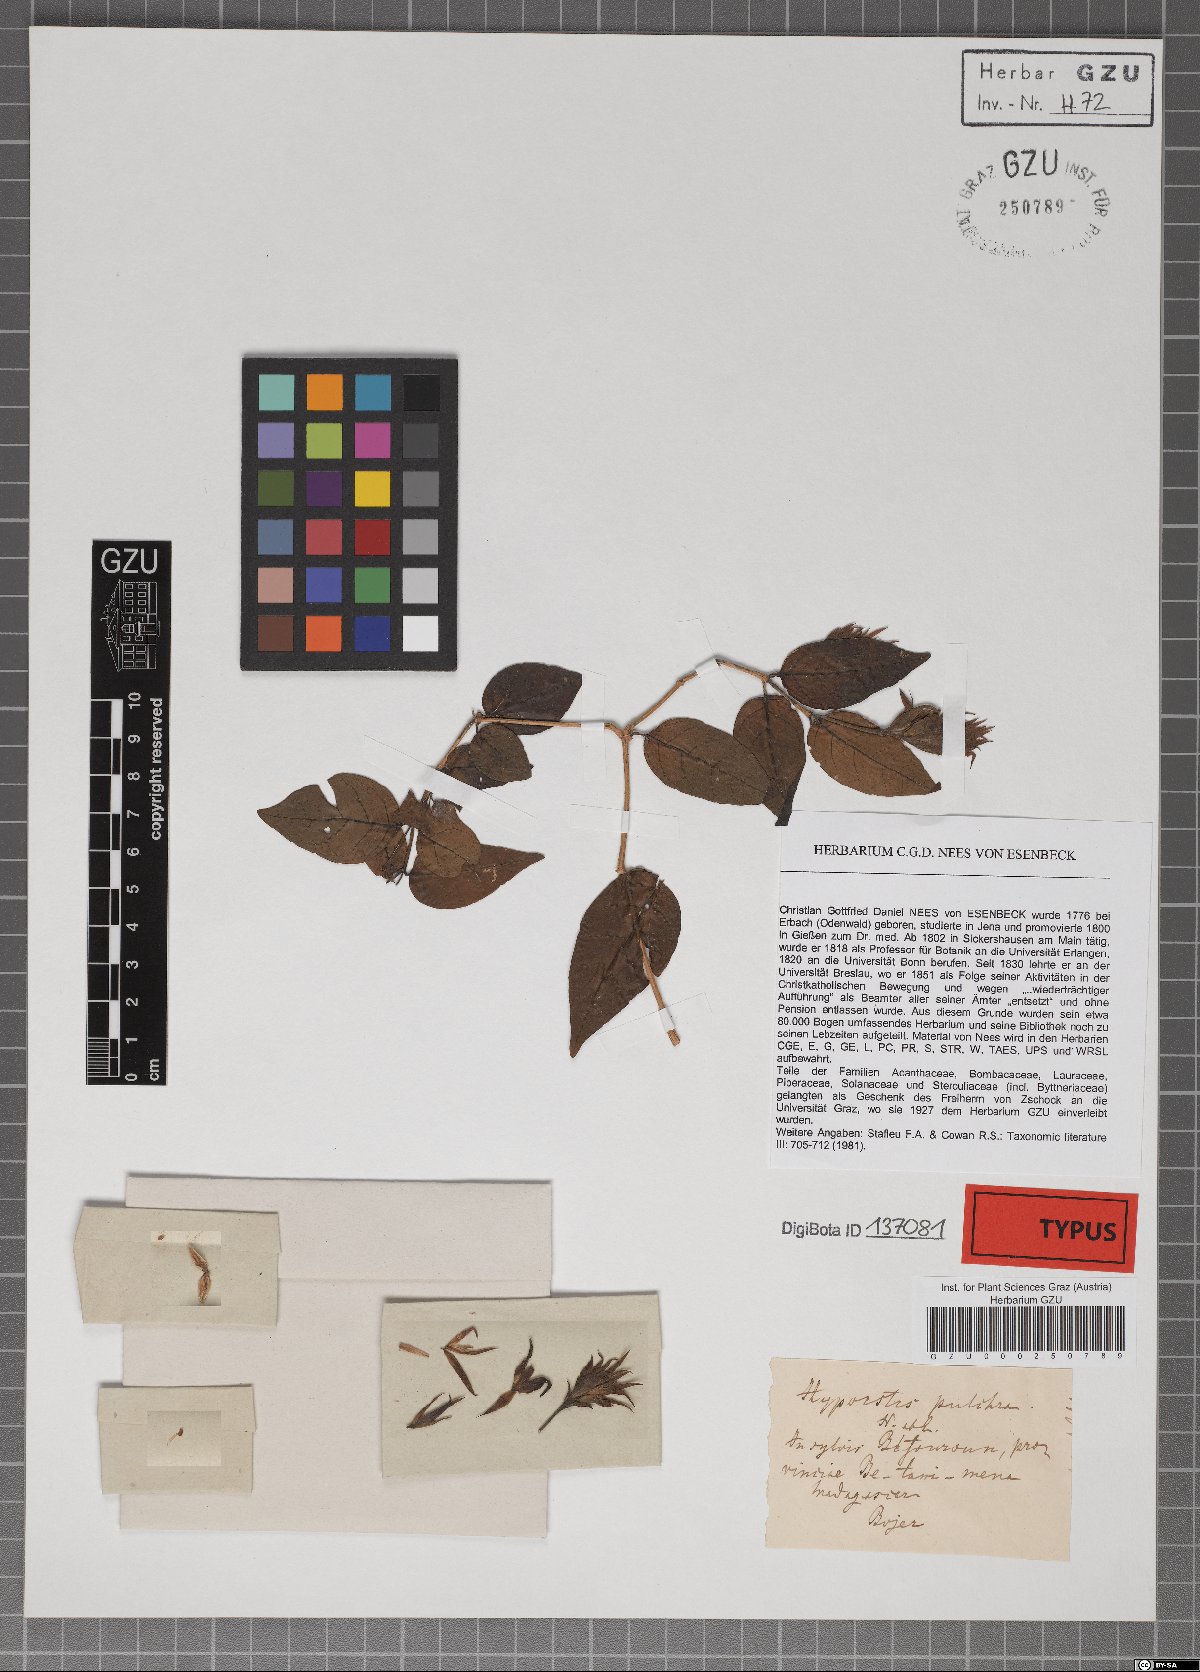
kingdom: Plantae
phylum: Tracheophyta
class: Magnoliopsida
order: Lamiales
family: Acanthaceae
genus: Hypoestes
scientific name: Hypoestes pulchra
